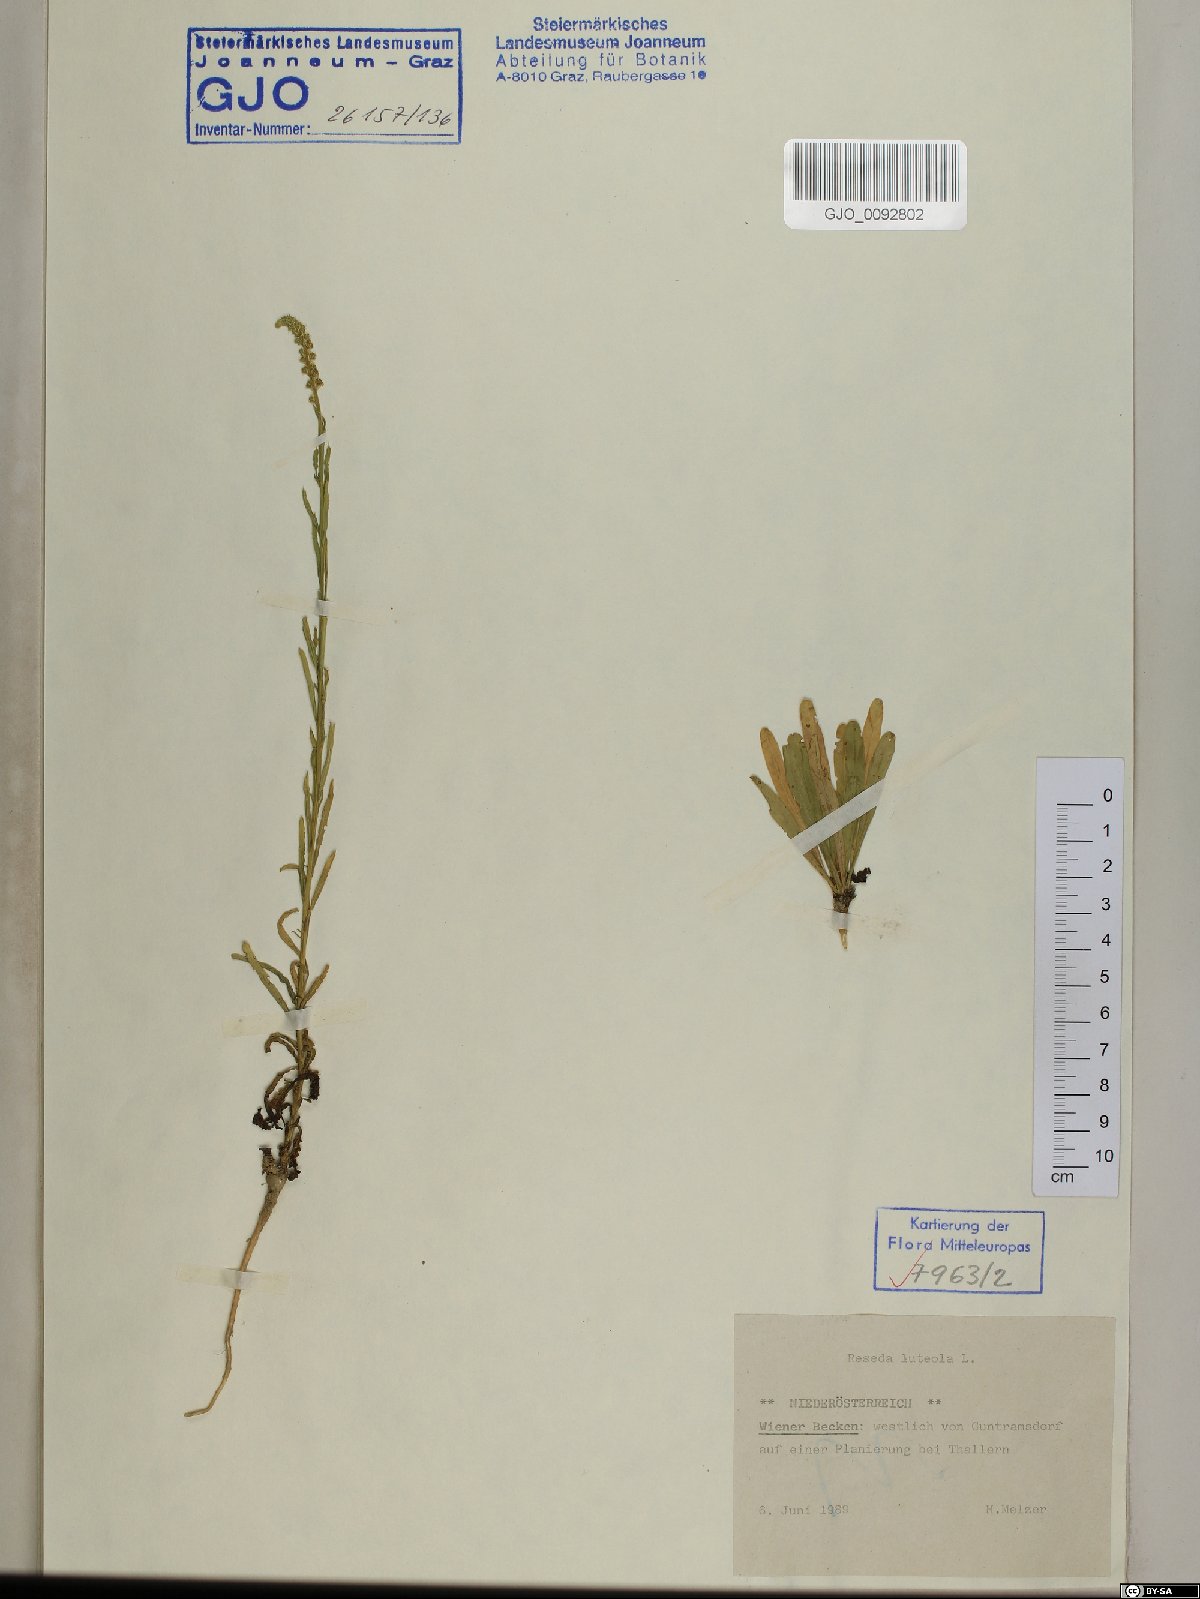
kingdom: Plantae
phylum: Tracheophyta
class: Magnoliopsida
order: Brassicales
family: Resedaceae
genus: Reseda
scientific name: Reseda luteola
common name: Weld
